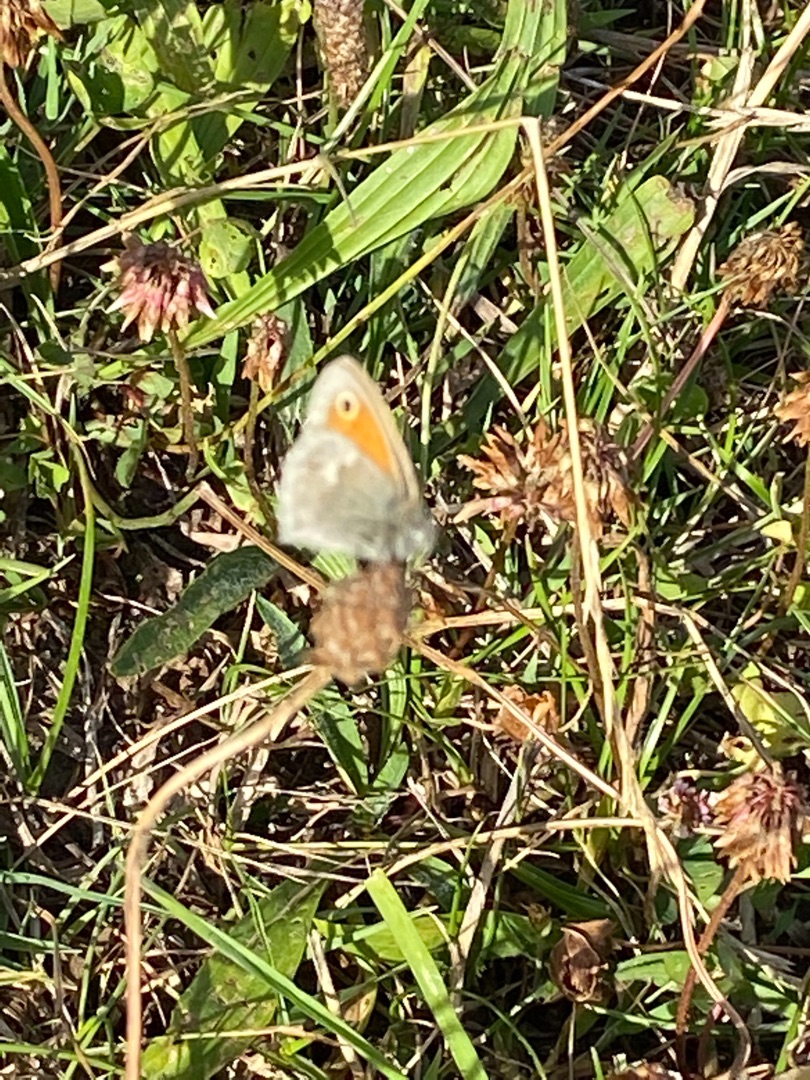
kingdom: Animalia
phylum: Arthropoda
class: Insecta
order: Lepidoptera
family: Nymphalidae
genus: Coenonympha
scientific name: Coenonympha pamphilus
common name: Okkergul randøje
